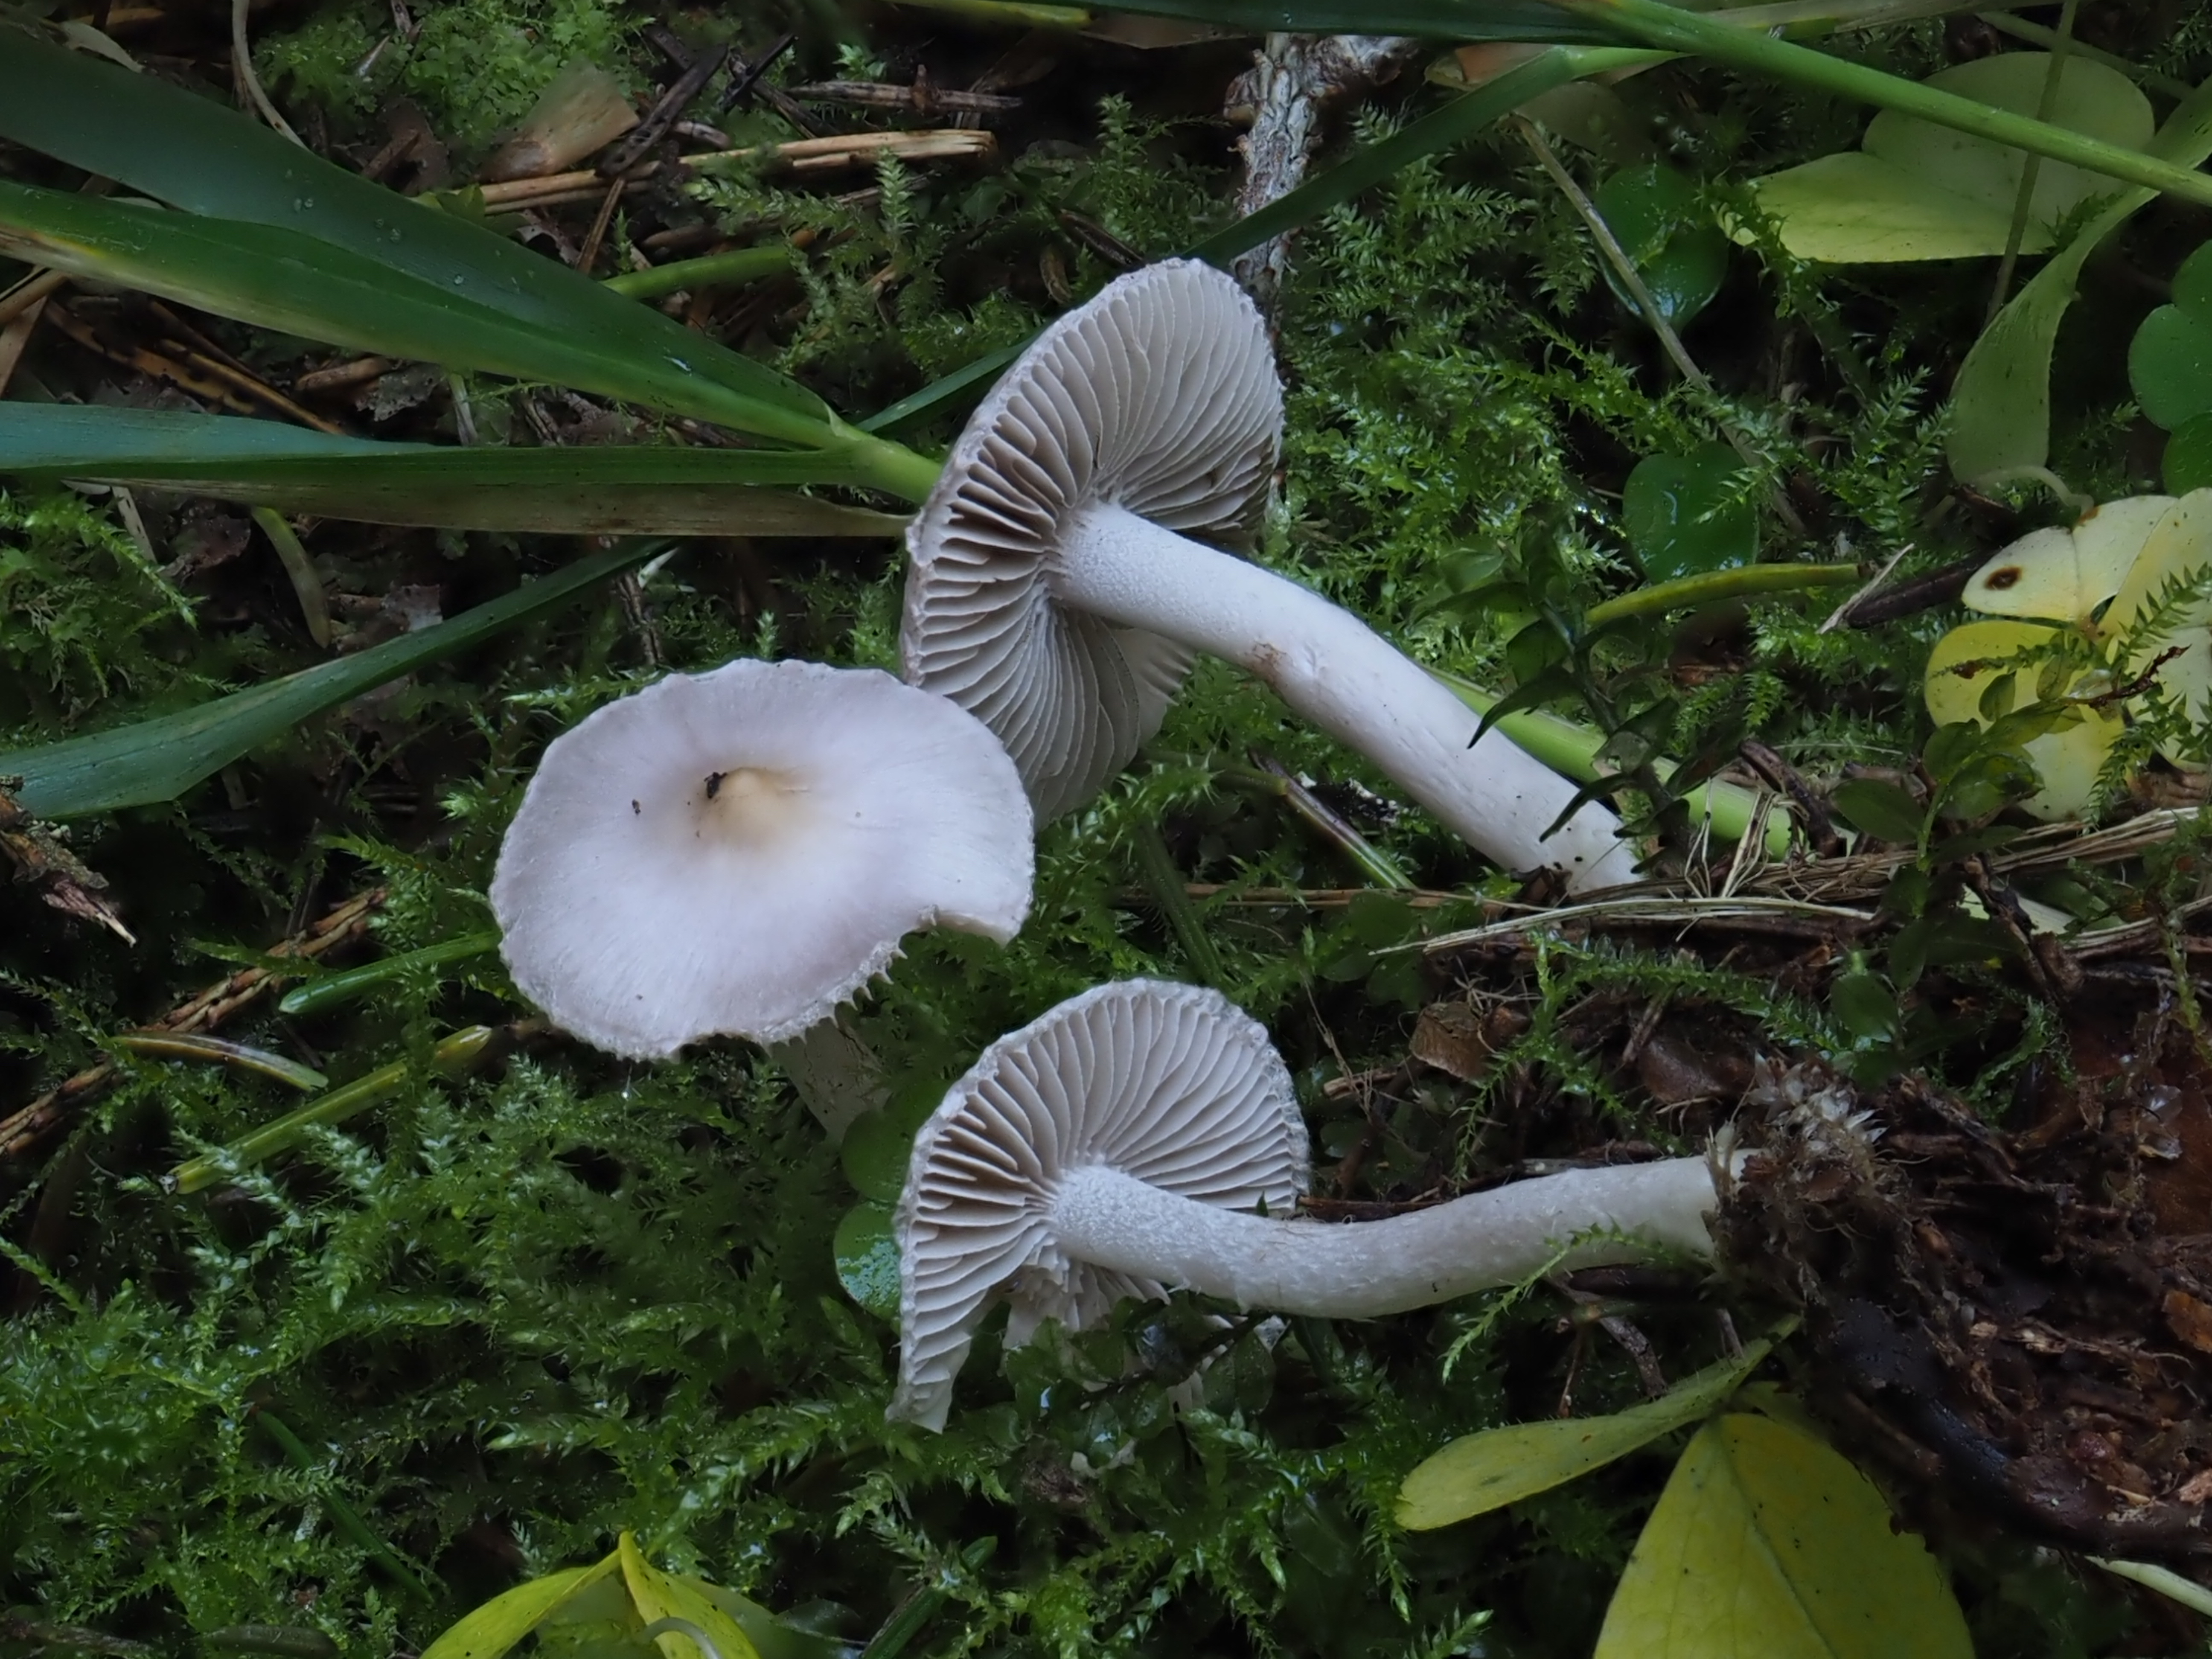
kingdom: Fungi
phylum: Basidiomycota
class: Agaricomycetes
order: Agaricales
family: Inocybaceae
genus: Inocybe
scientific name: Inocybe geophylla
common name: White fibrecap
